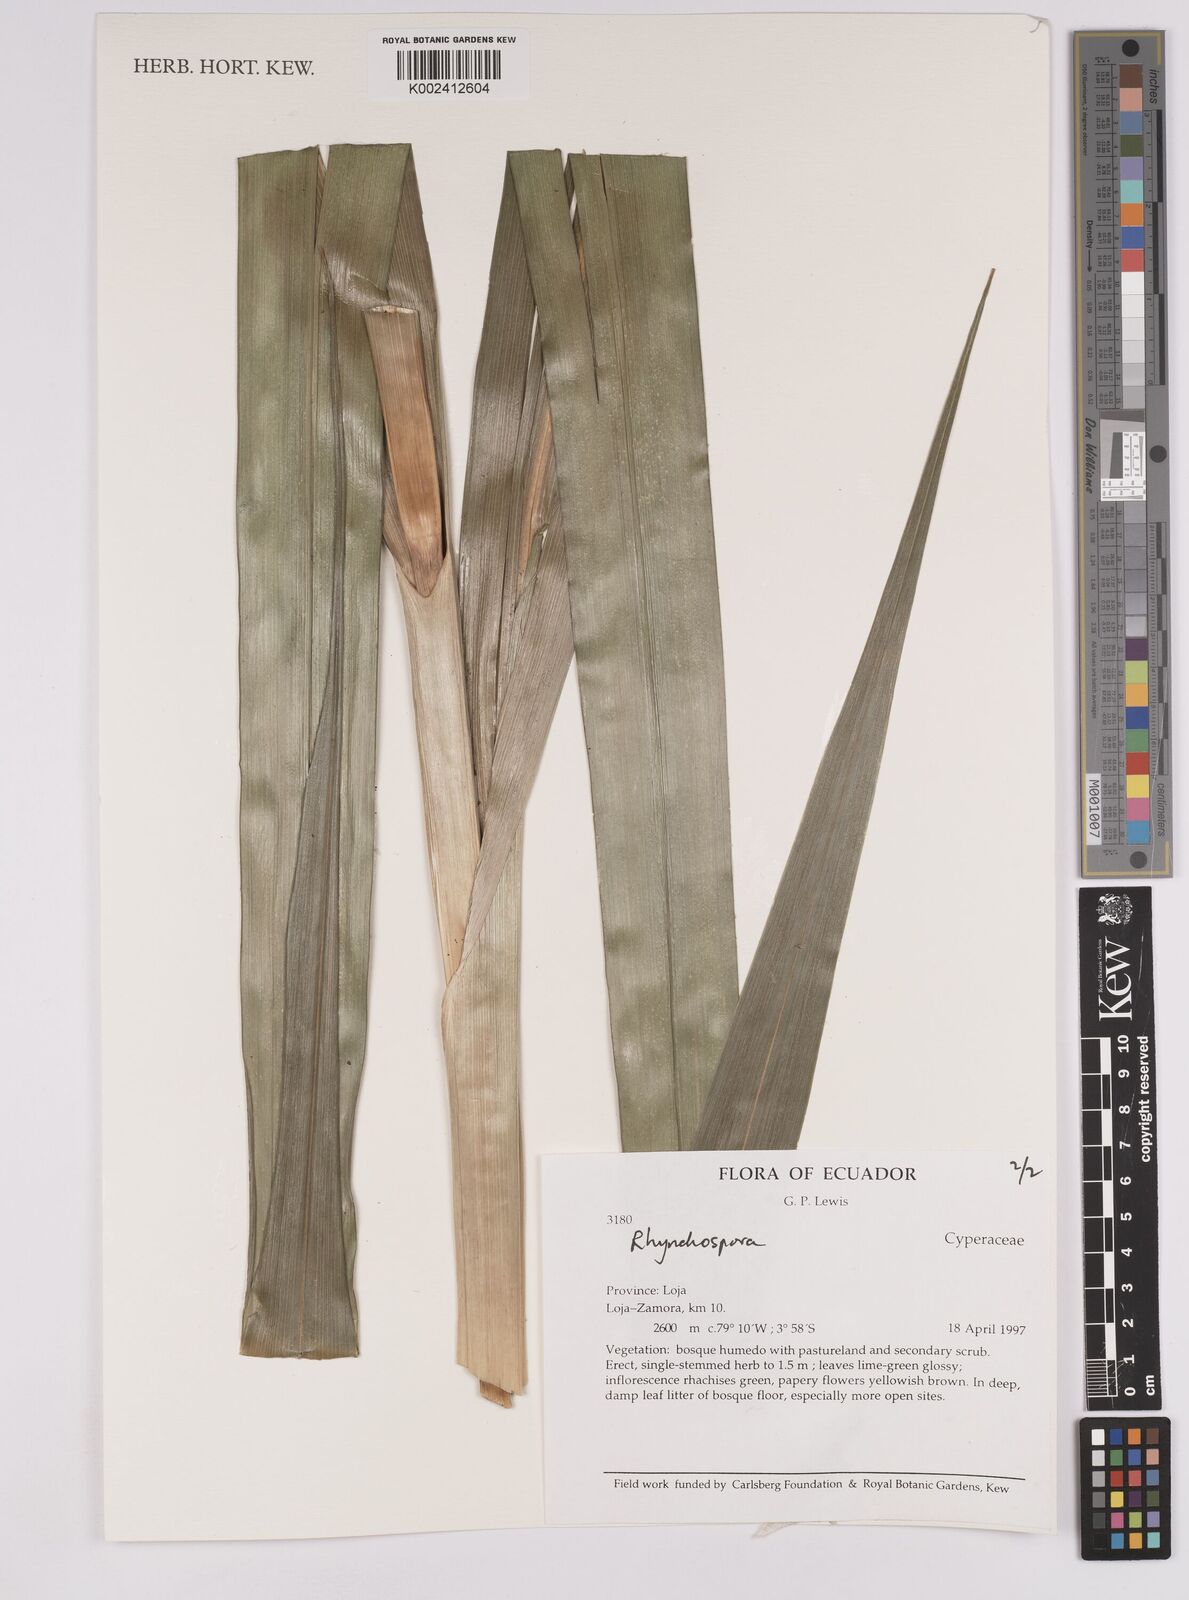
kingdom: Plantae
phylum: Tracheophyta
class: Liliopsida
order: Poales
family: Cyperaceae
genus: Rhynchospora
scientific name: Rhynchospora
